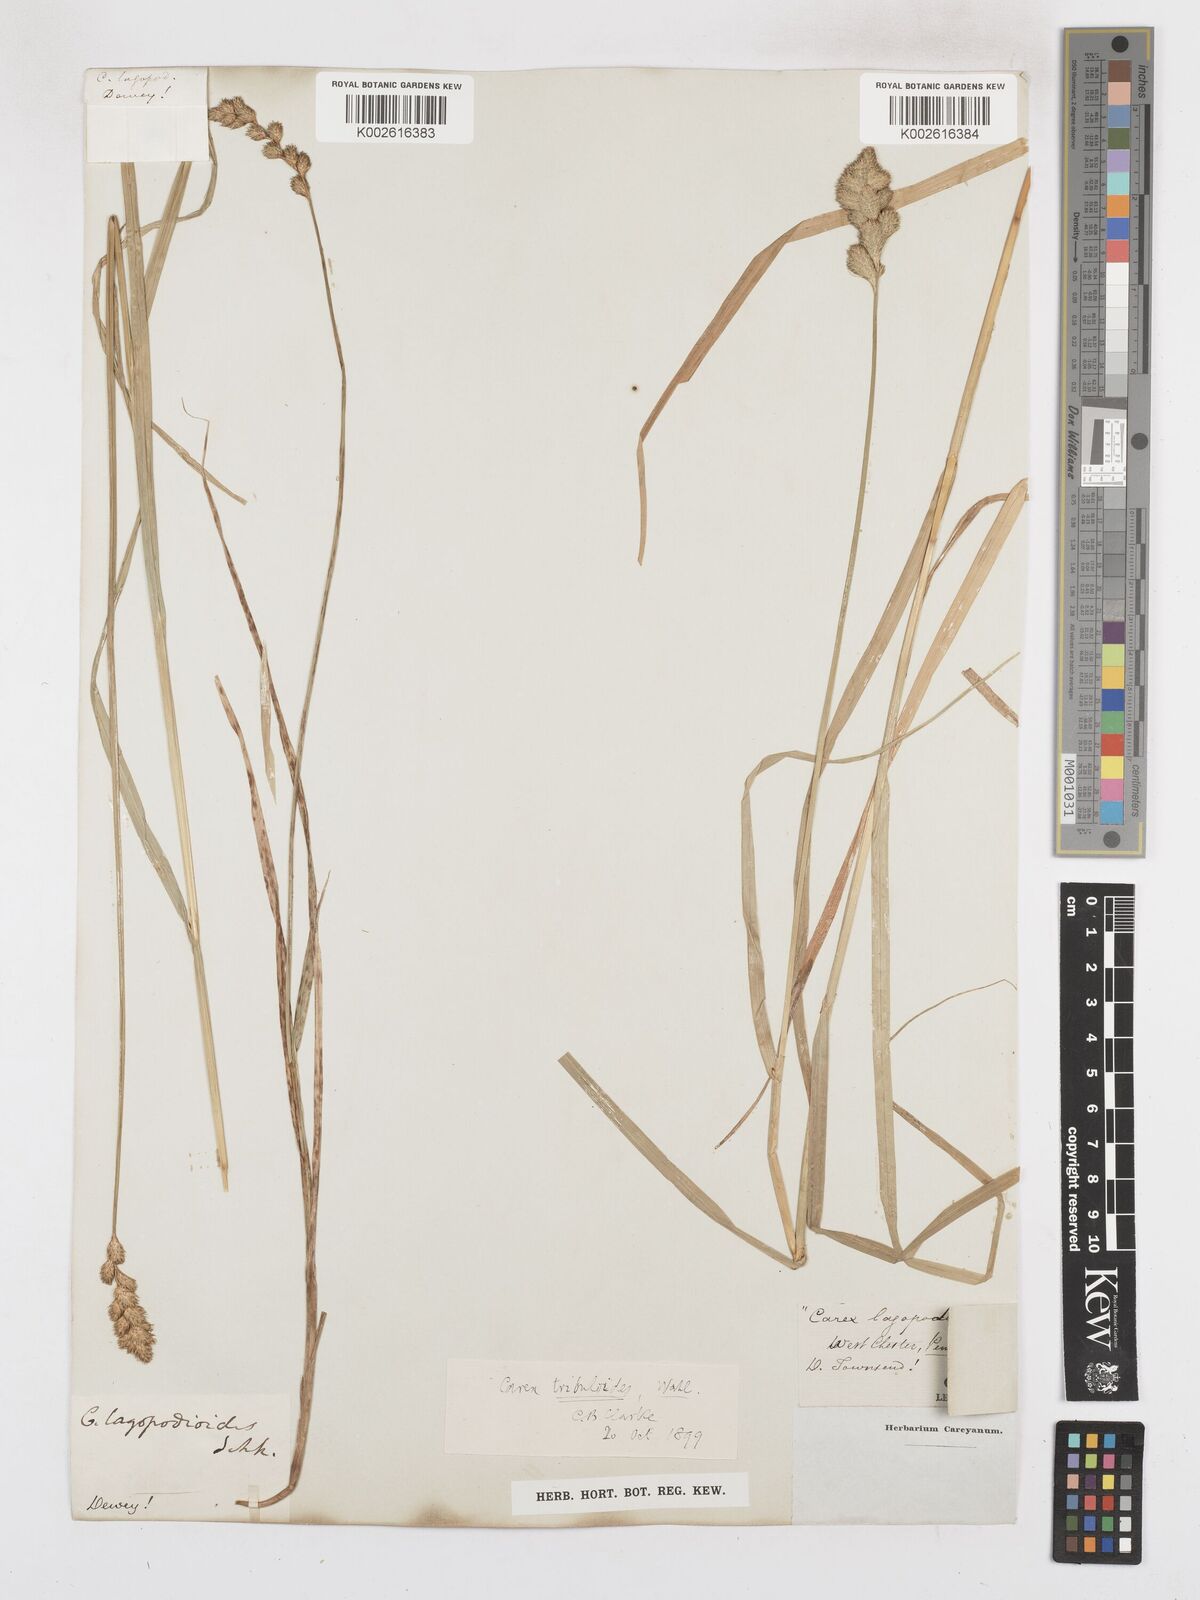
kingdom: Plantae
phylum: Tracheophyta
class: Liliopsida
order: Poales
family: Cyperaceae
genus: Carex
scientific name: Carex tribuloides
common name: Blunt broom sedge
